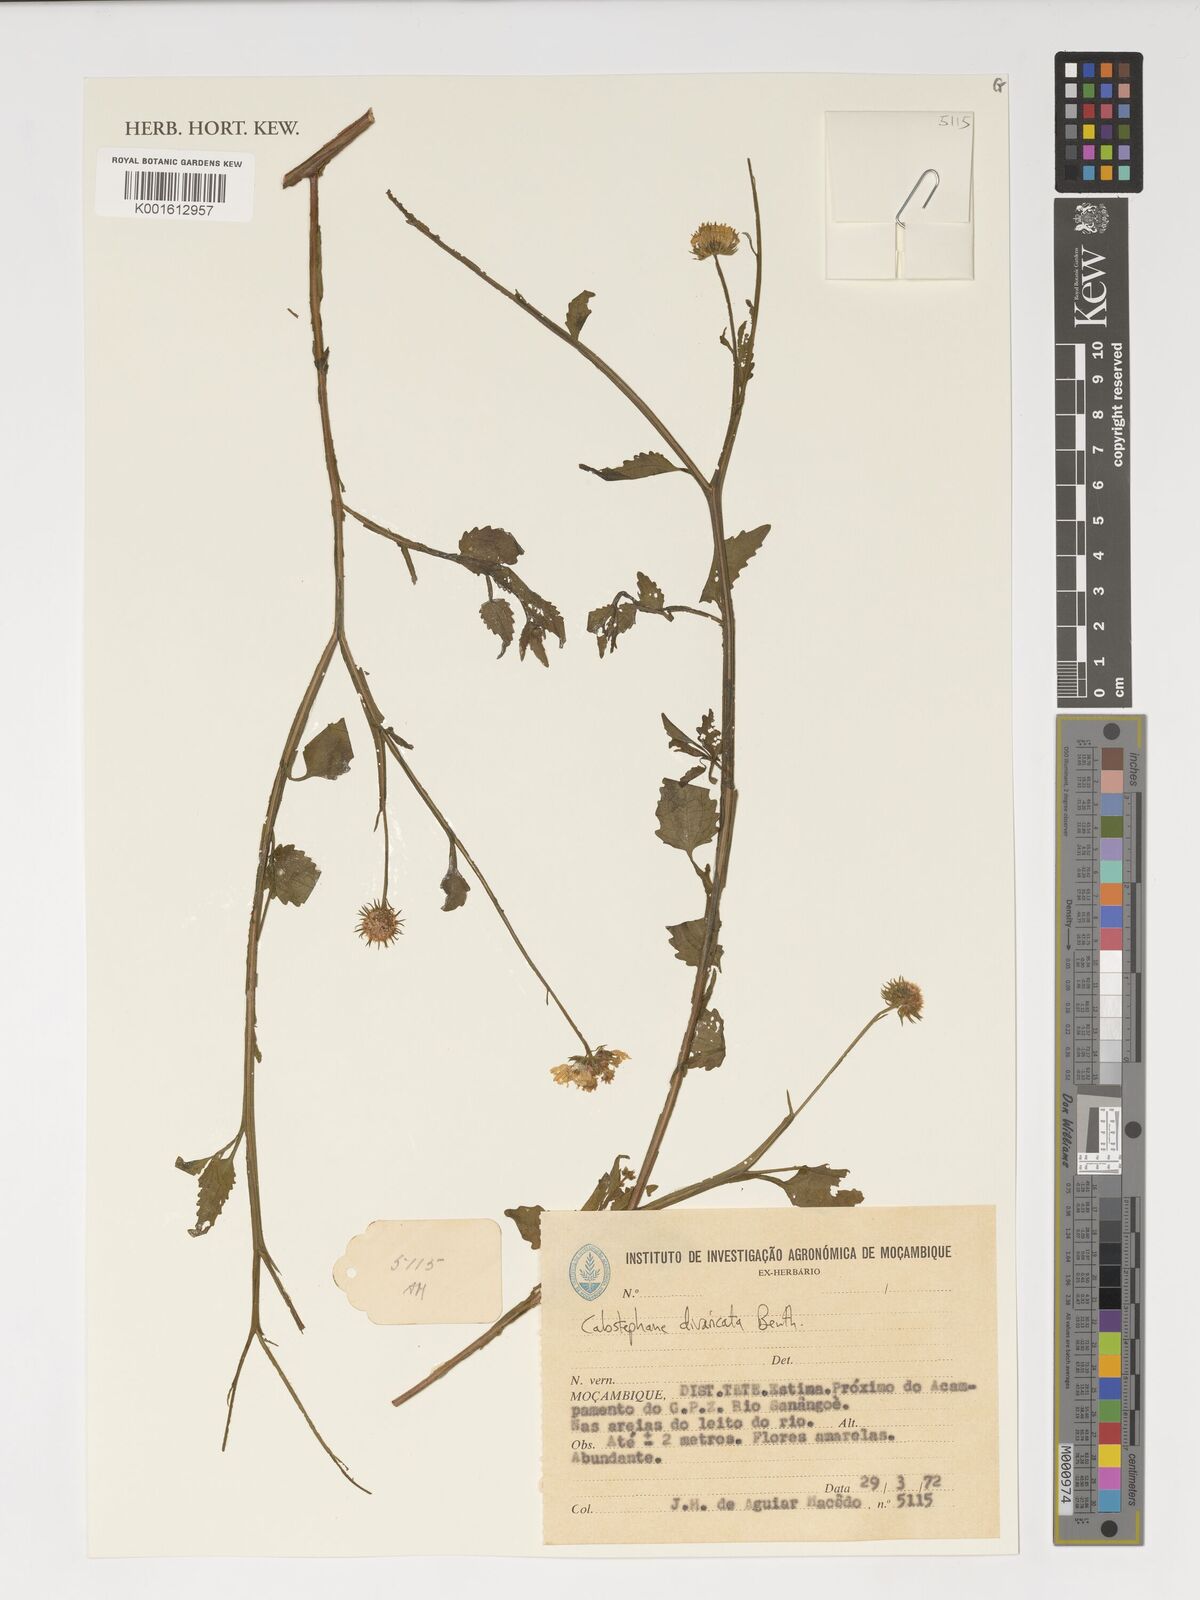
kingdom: Plantae
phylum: Tracheophyta
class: Magnoliopsida
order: Asterales
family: Asteraceae
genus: Calostephane
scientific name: Calostephane divaricata
